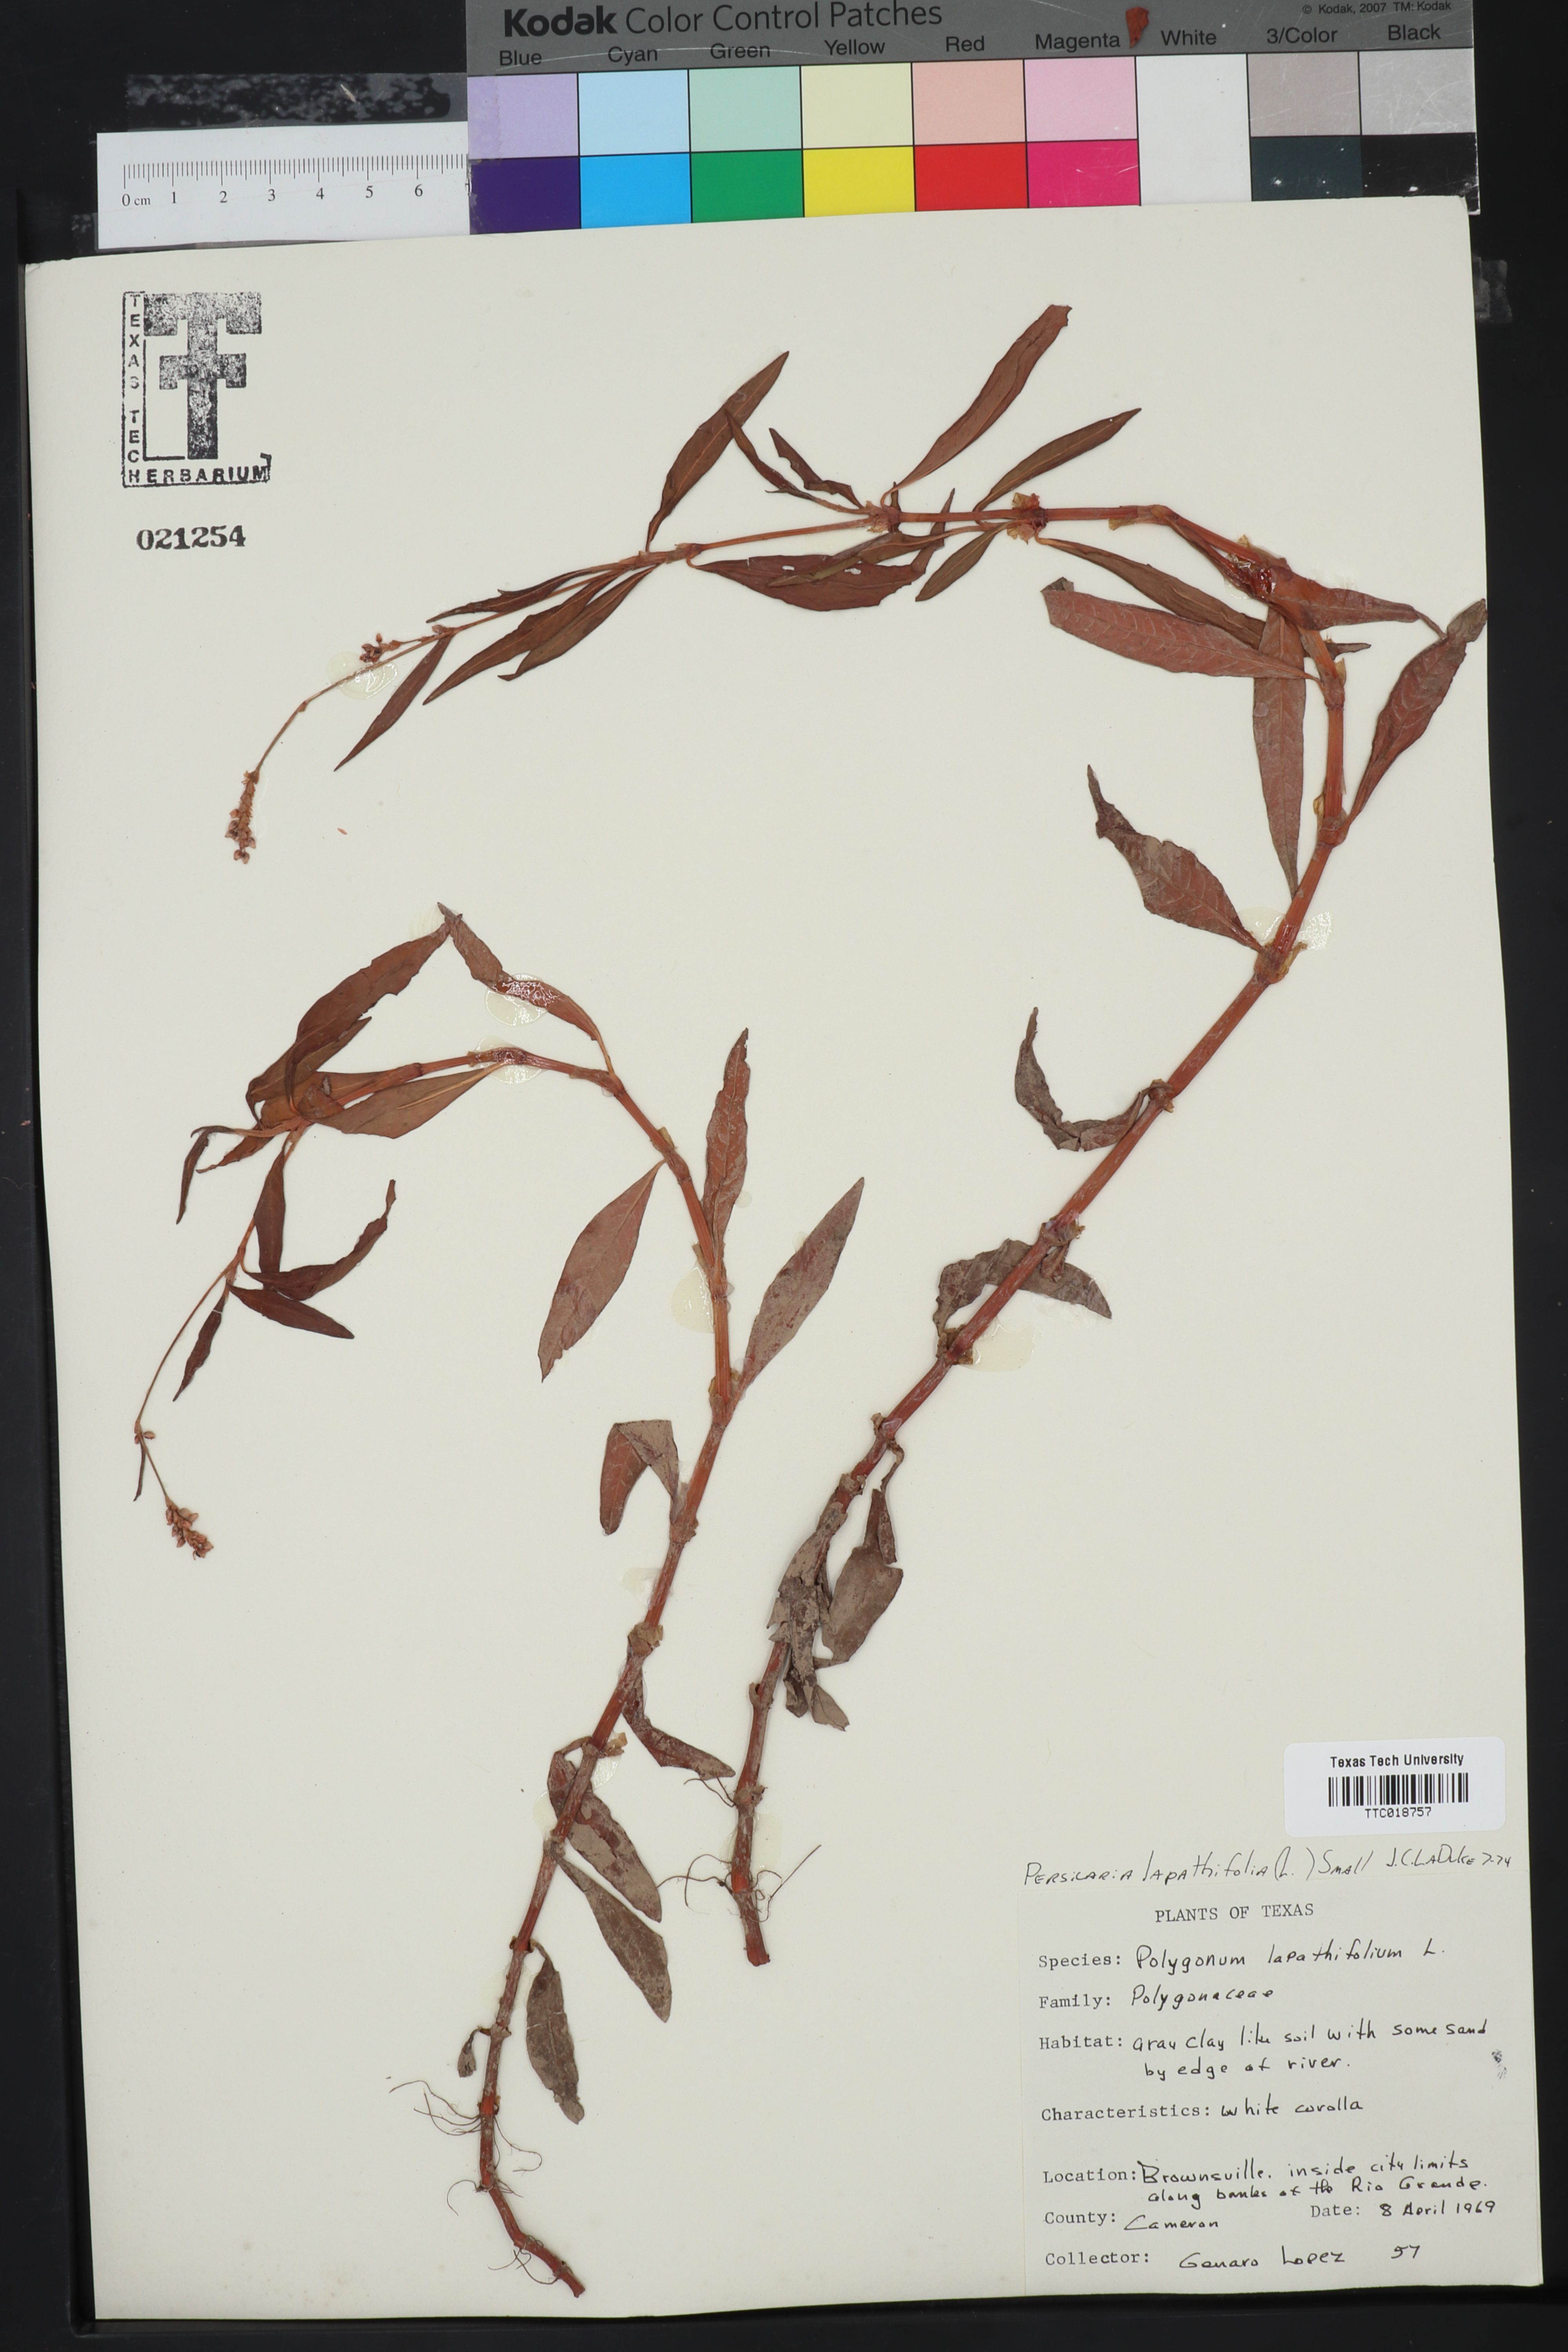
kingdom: Plantae
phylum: Tracheophyta
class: Magnoliopsida
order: Caryophyllales
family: Polygonaceae
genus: Persicaria
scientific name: Persicaria lapathifolia
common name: Curlytop knotweed
